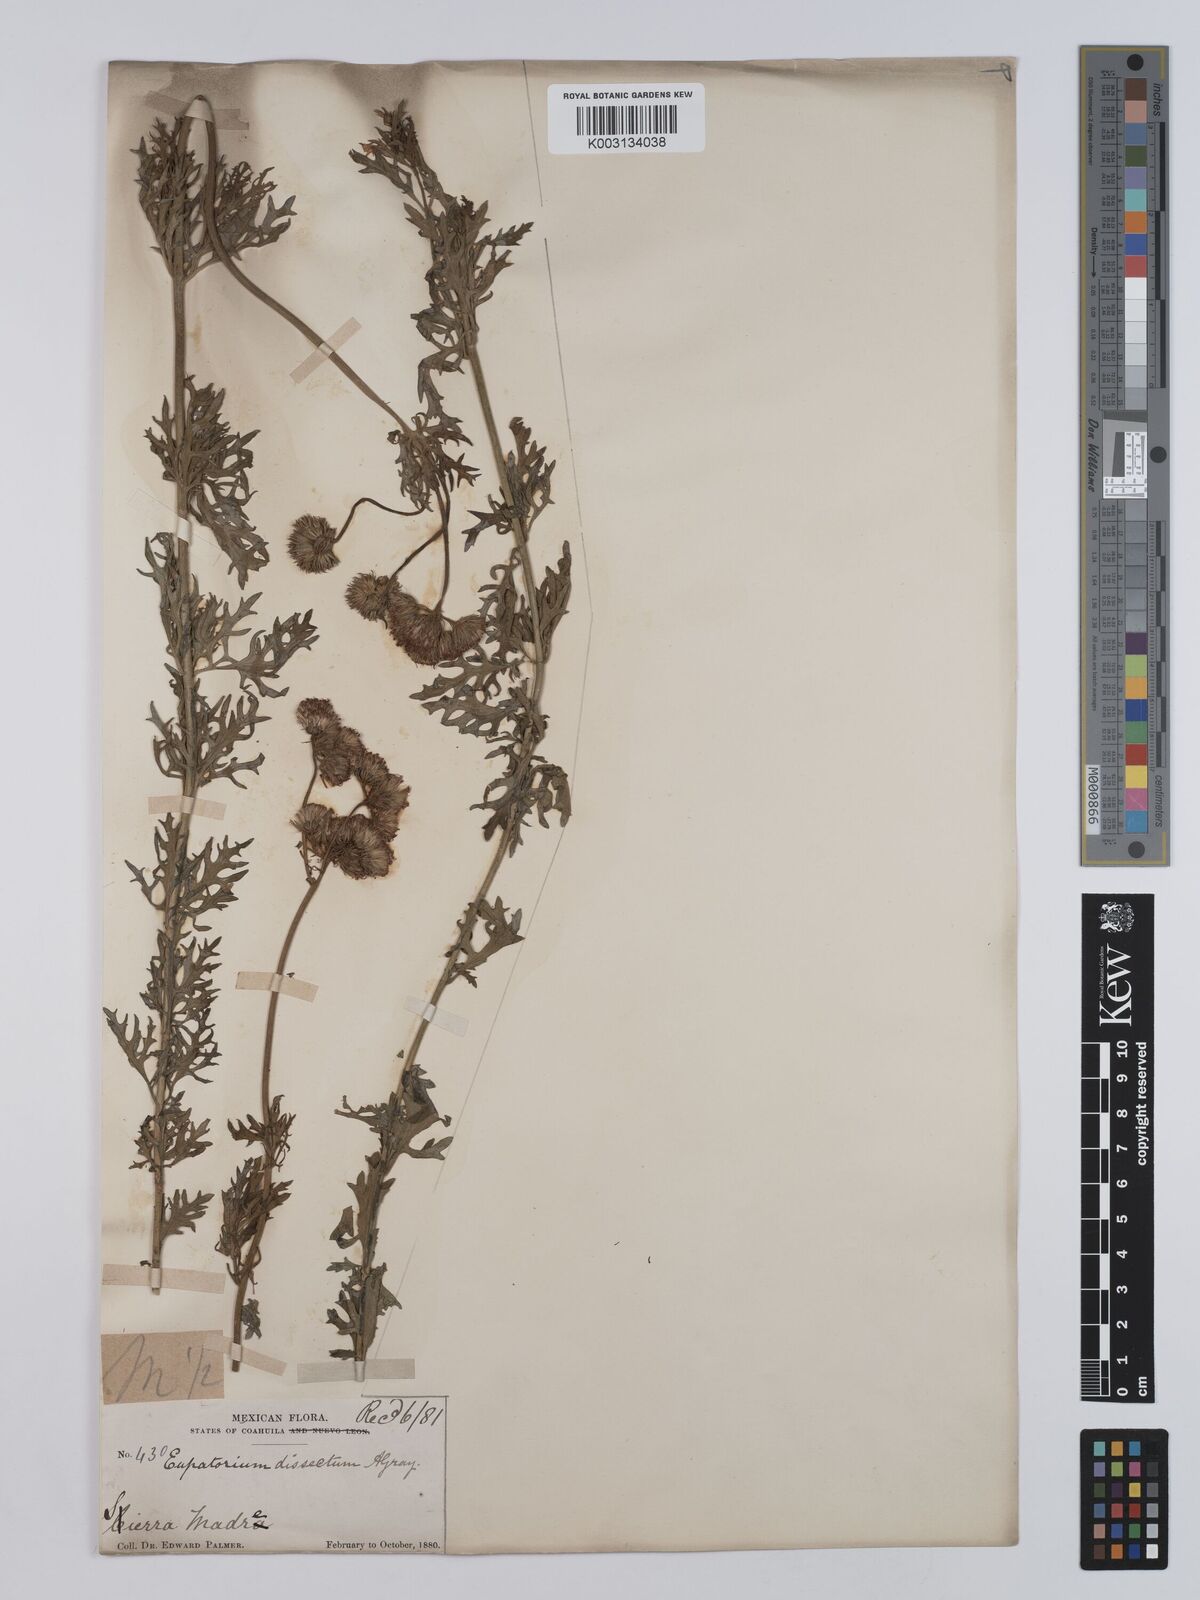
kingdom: Plantae
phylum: Tracheophyta
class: Magnoliopsida
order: Asterales
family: Asteraceae
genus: Conoclinium
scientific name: Conoclinium dissectum
